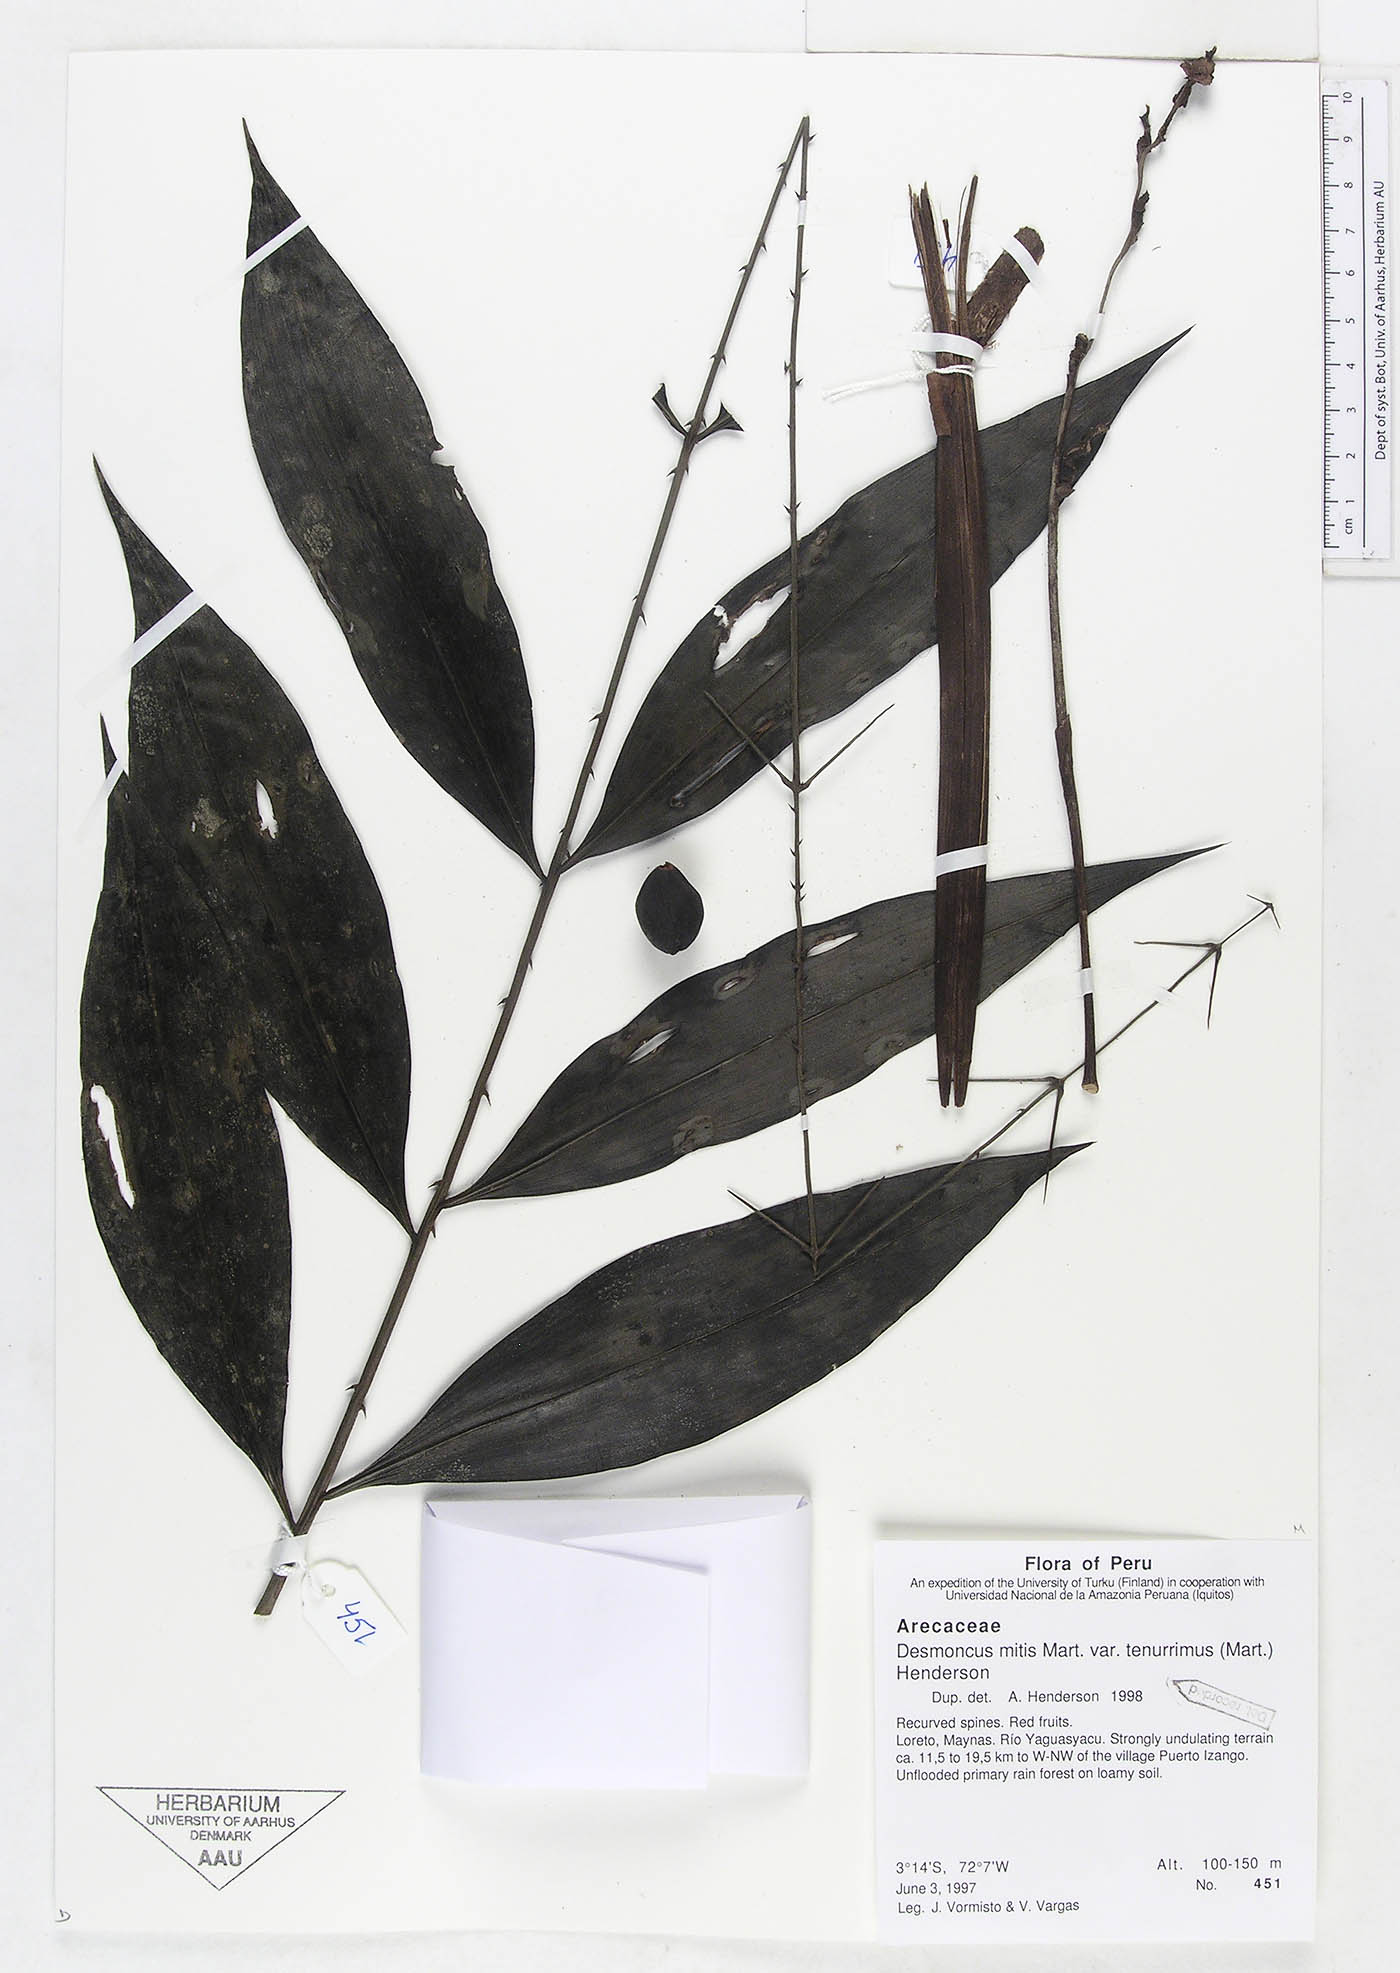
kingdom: Plantae
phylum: Tracheophyta
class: Liliopsida
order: Arecales
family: Arecaceae
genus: Desmoncus
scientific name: Desmoncus vacivus
